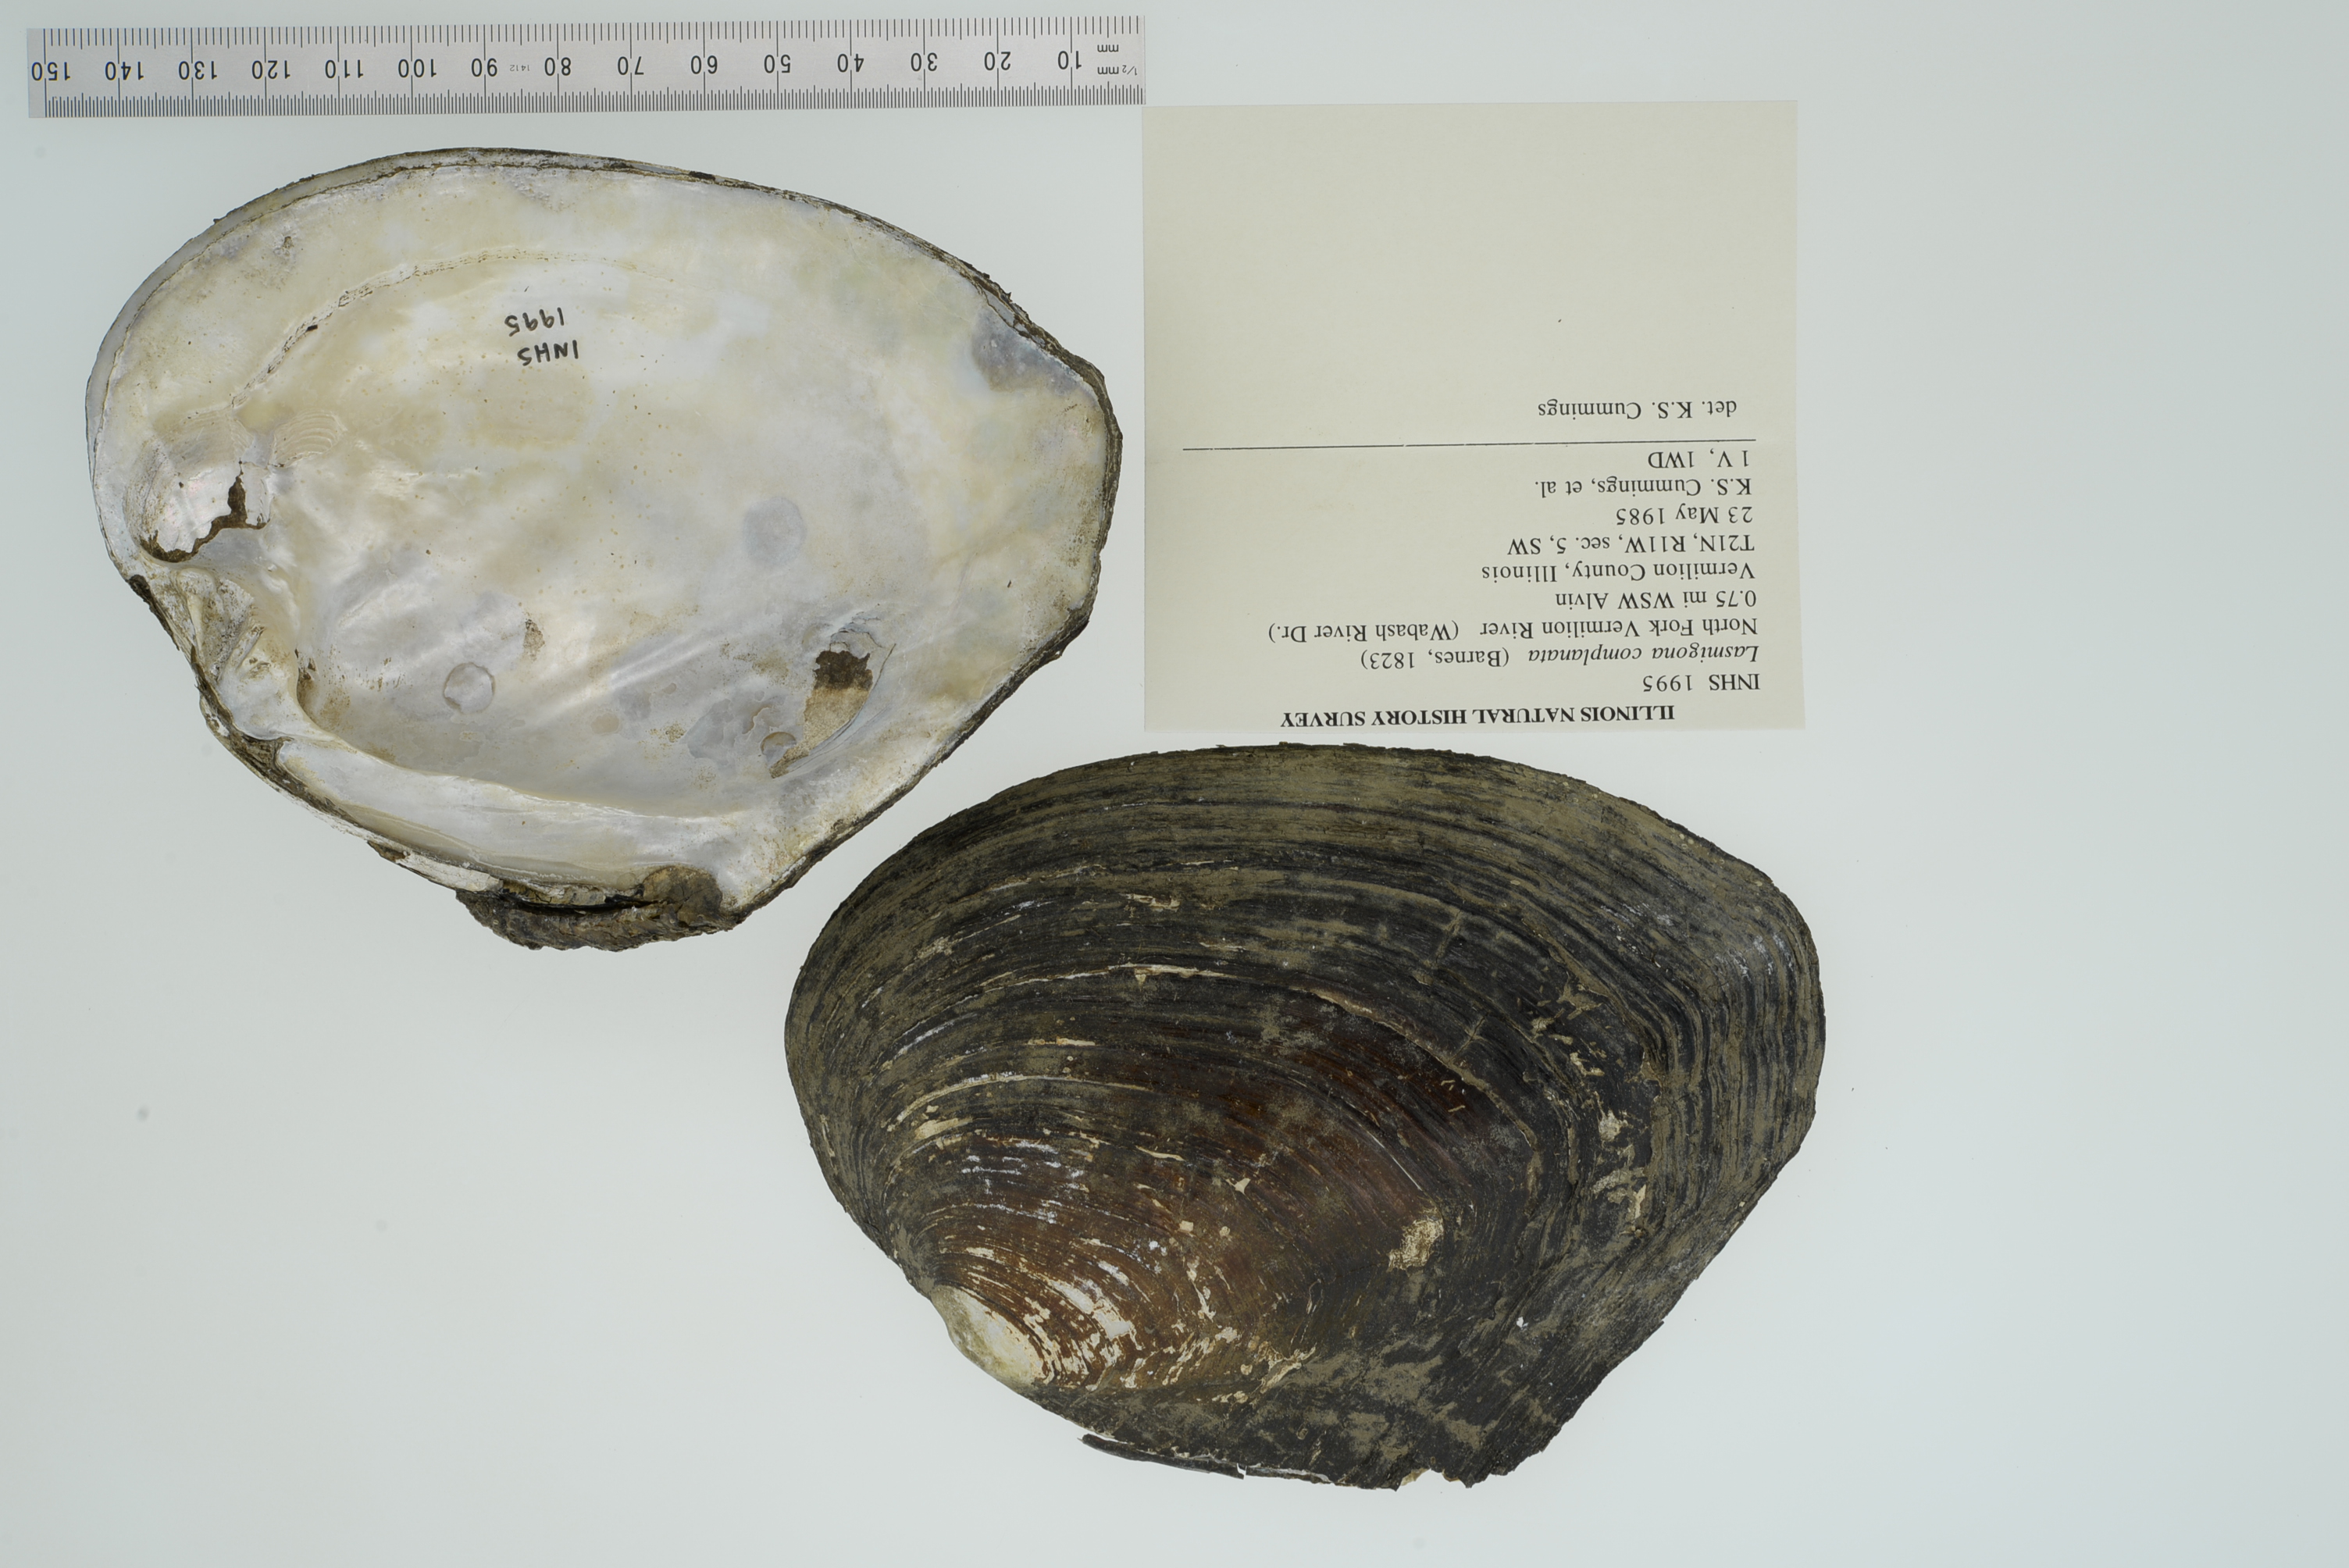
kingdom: Animalia
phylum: Mollusca
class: Bivalvia
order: Unionida
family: Unionidae
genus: Lasmigona
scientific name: Lasmigona complanata
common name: White heelsplitter
